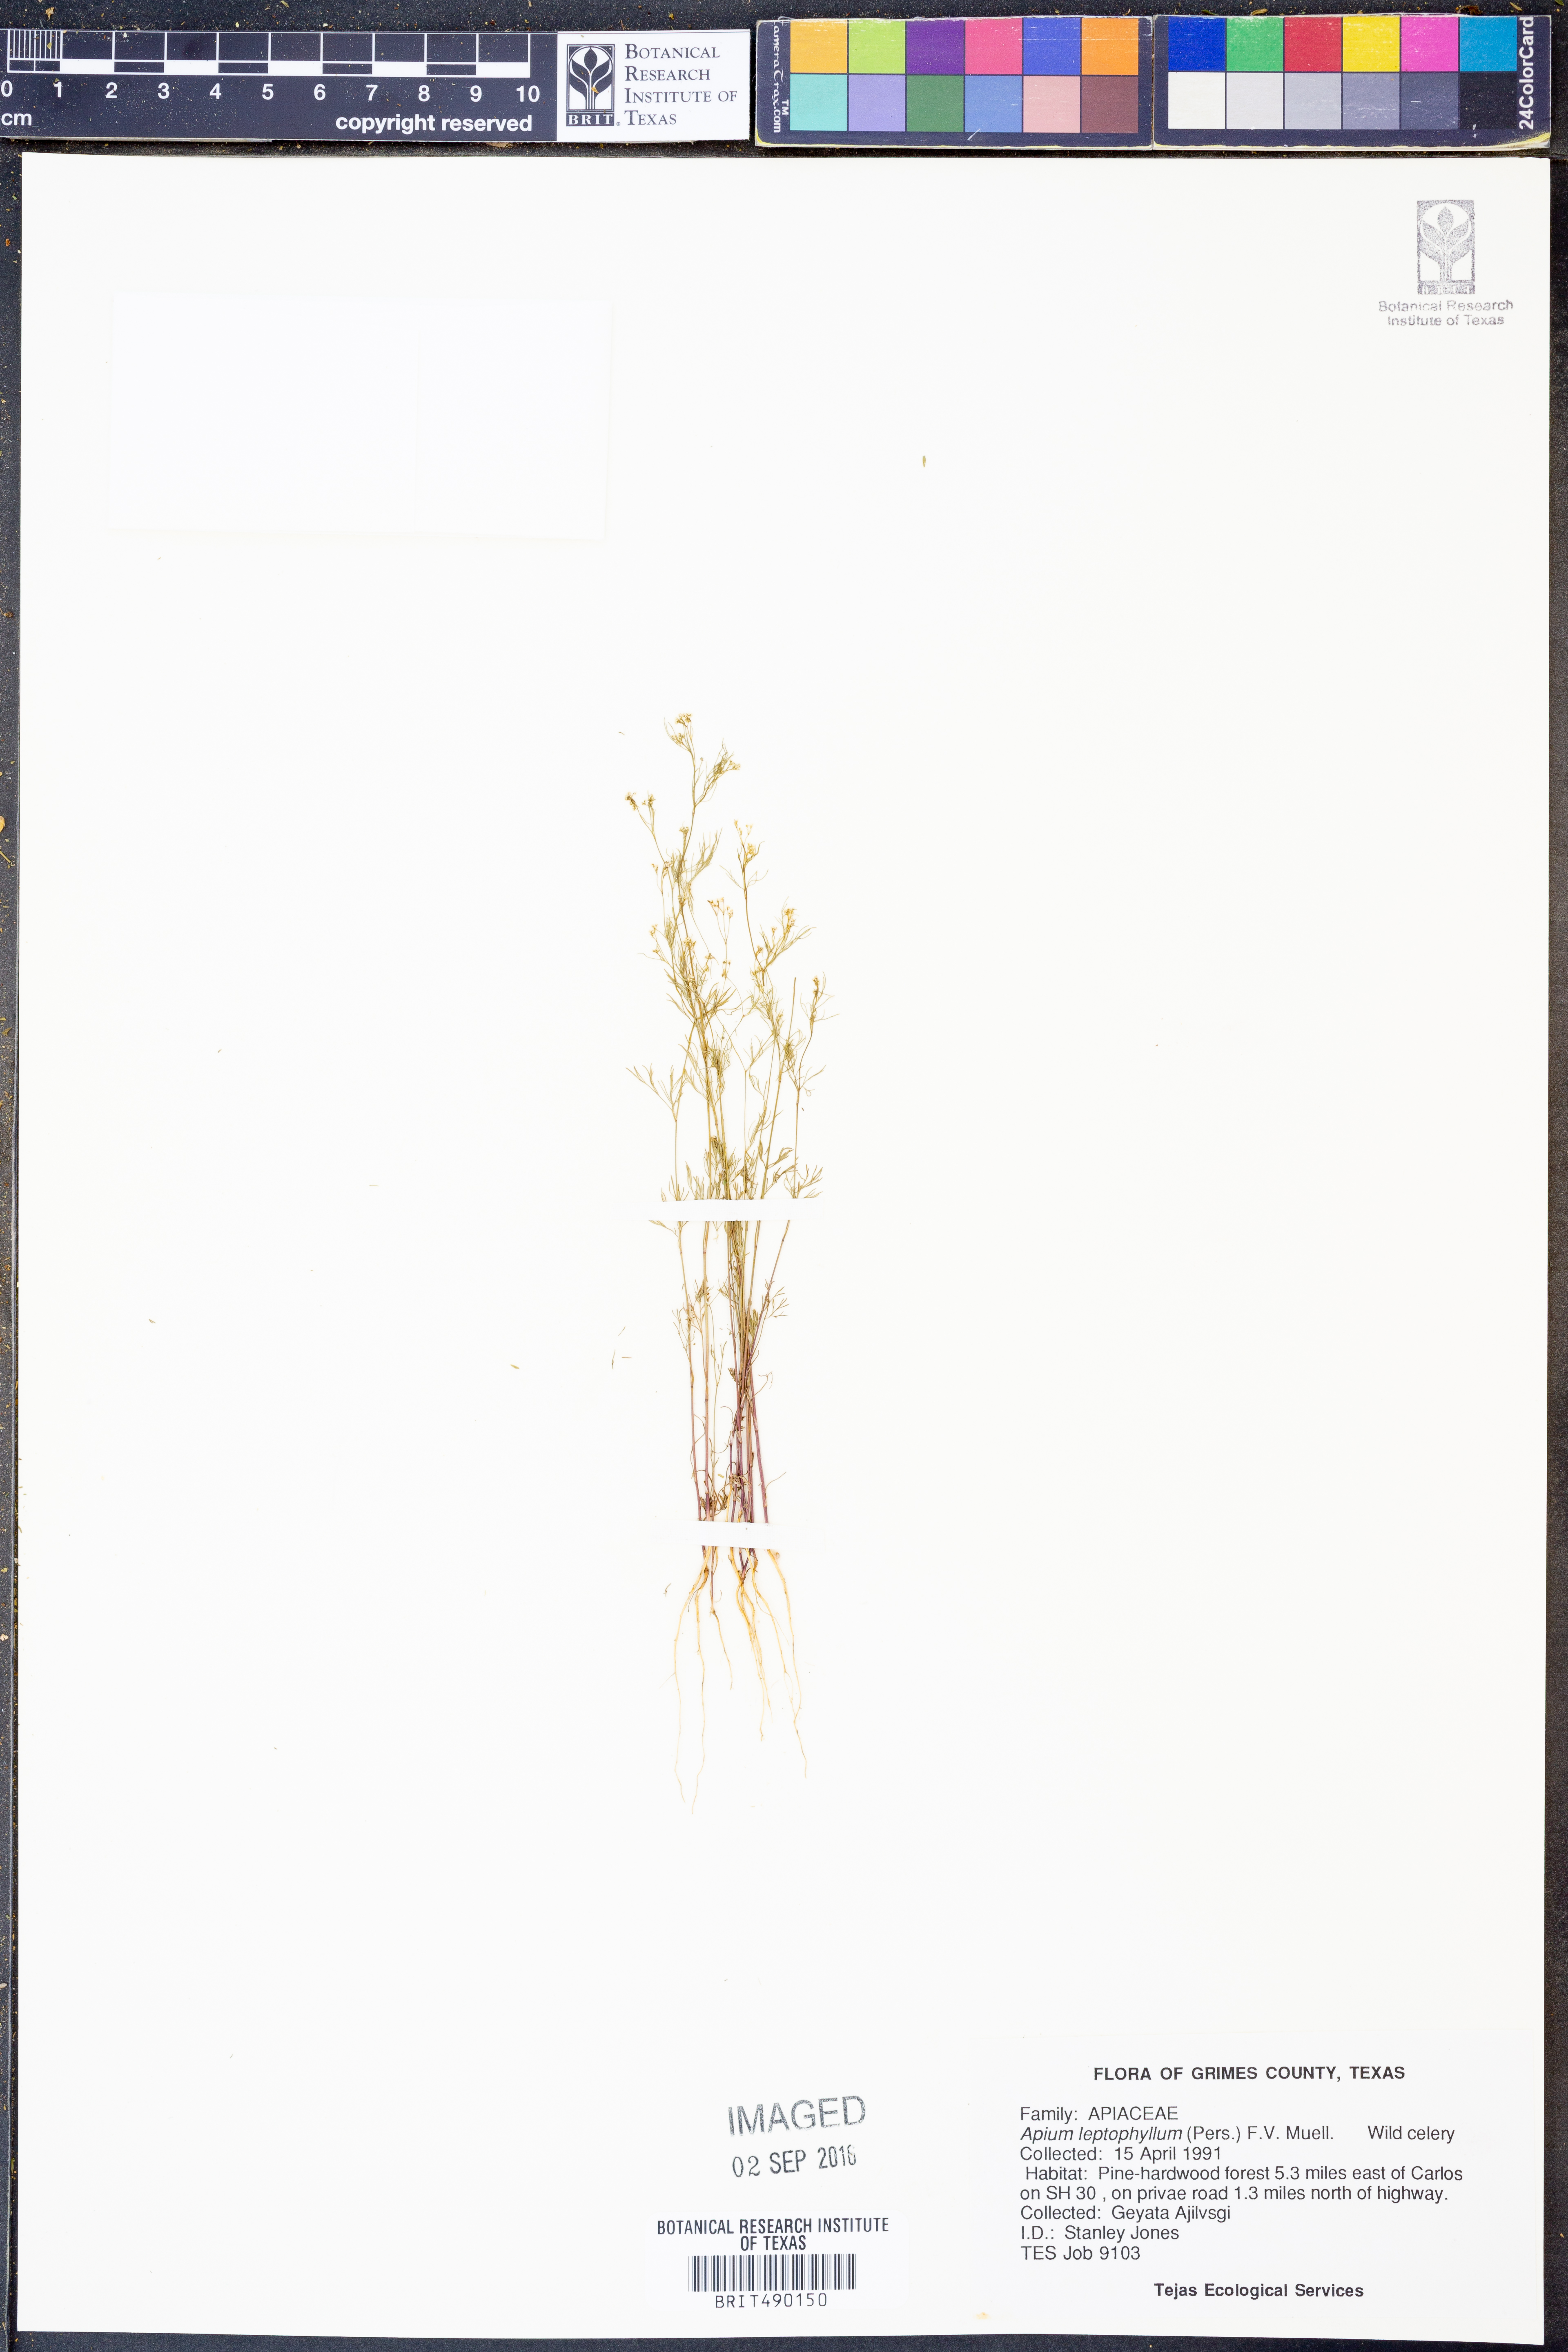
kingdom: Plantae
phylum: Tracheophyta
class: Magnoliopsida
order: Apiales
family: Apiaceae
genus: Cyclospermum
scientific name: Cyclospermum leptophyllum
